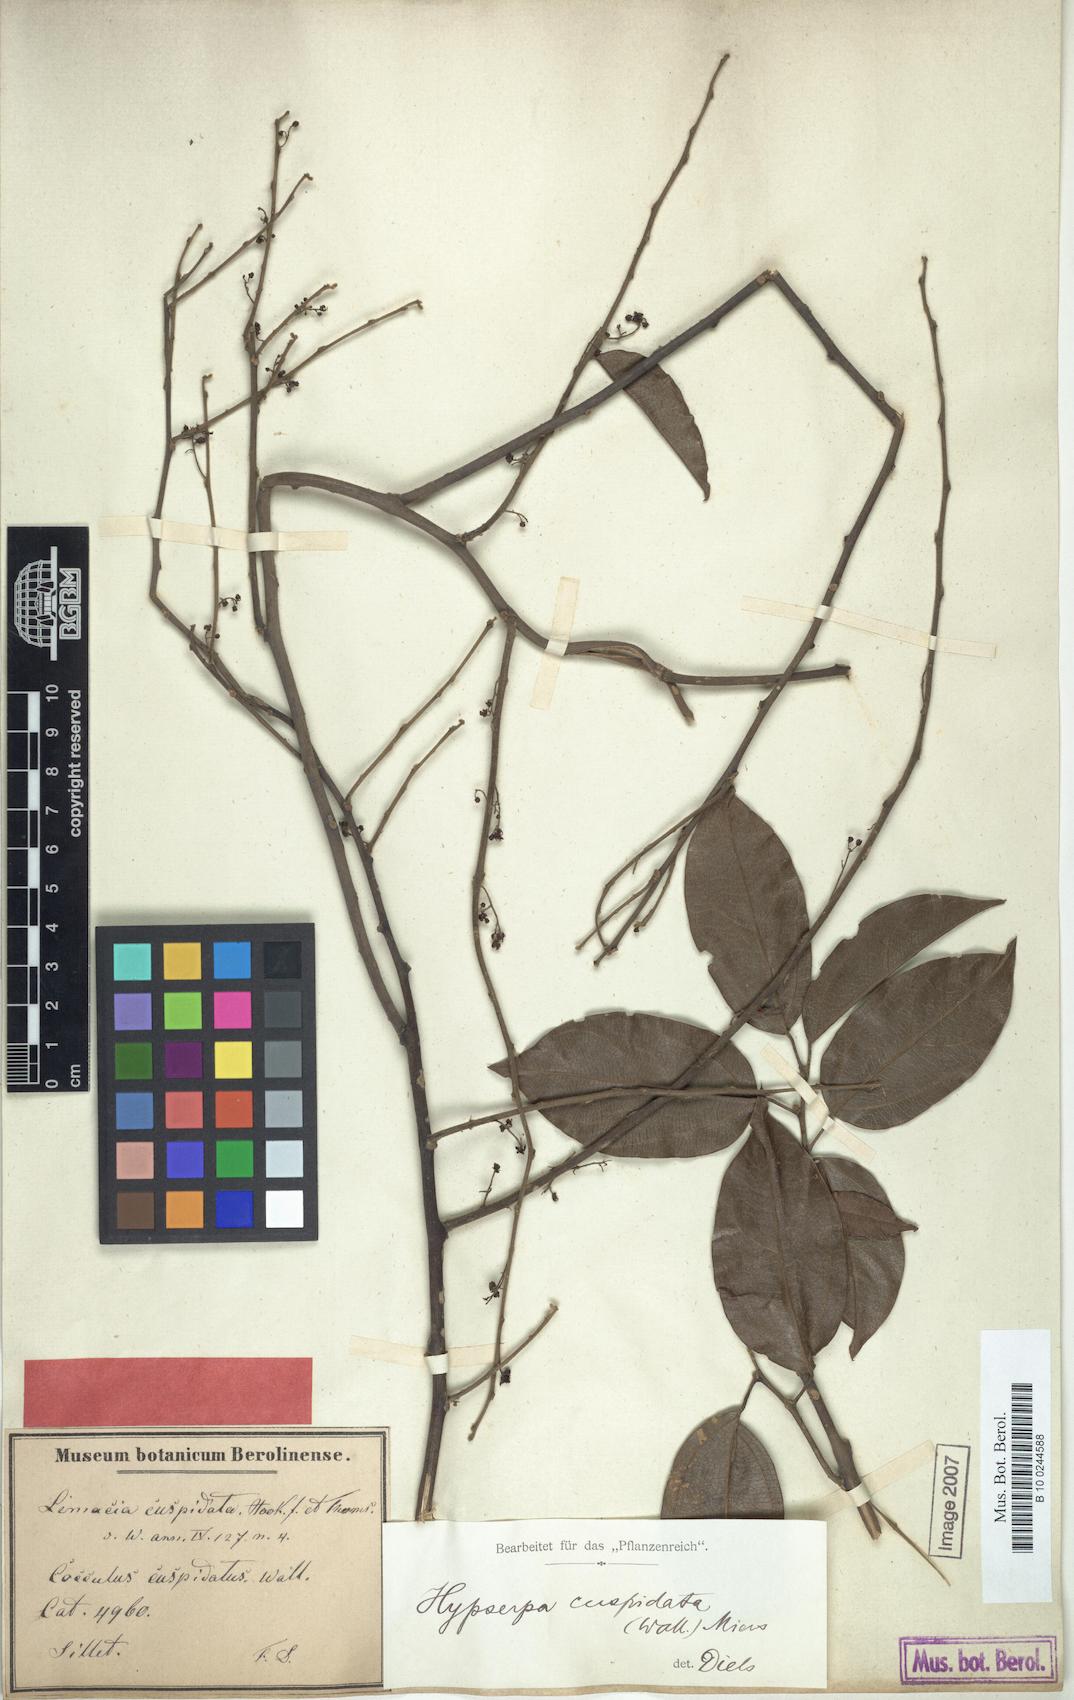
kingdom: Plantae
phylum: Tracheophyta
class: Magnoliopsida
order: Ranunculales
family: Menispermaceae
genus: Hypserpa
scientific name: Hypserpa nitida
